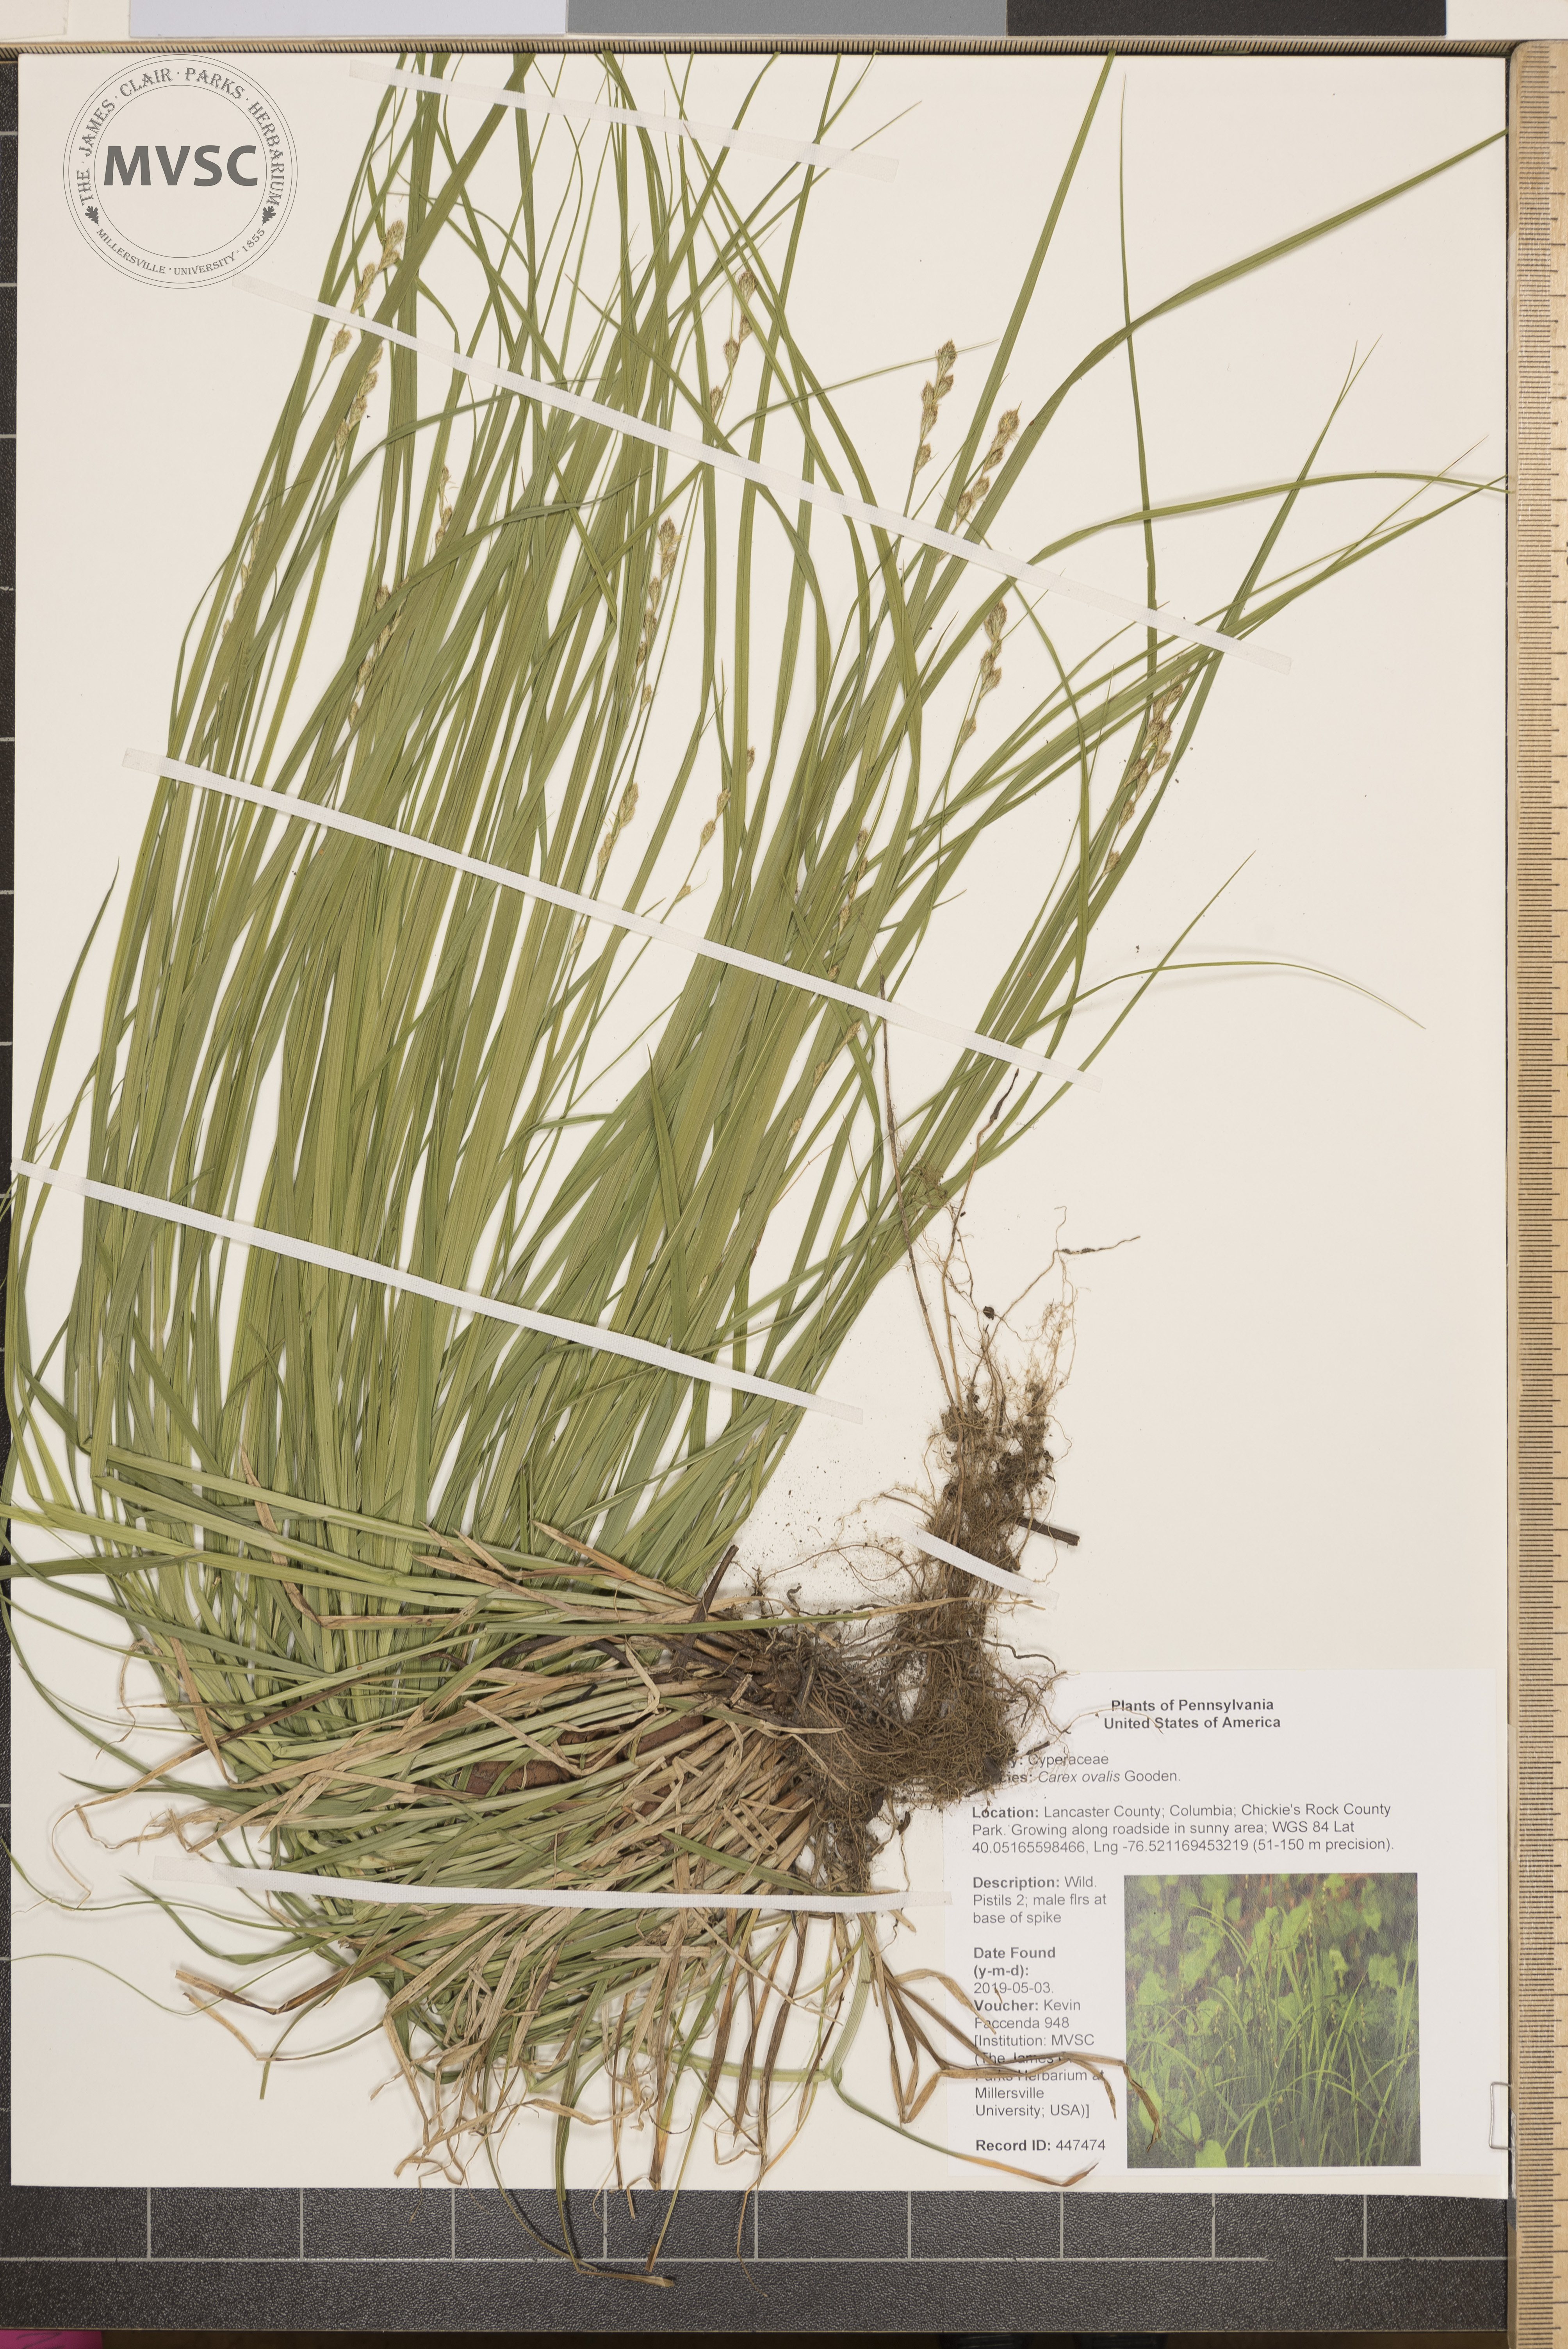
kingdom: Plantae
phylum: Tracheophyta
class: Liliopsida
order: Poales
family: Cyperaceae
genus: Carex
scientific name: Carex leporina
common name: Oval sedge
